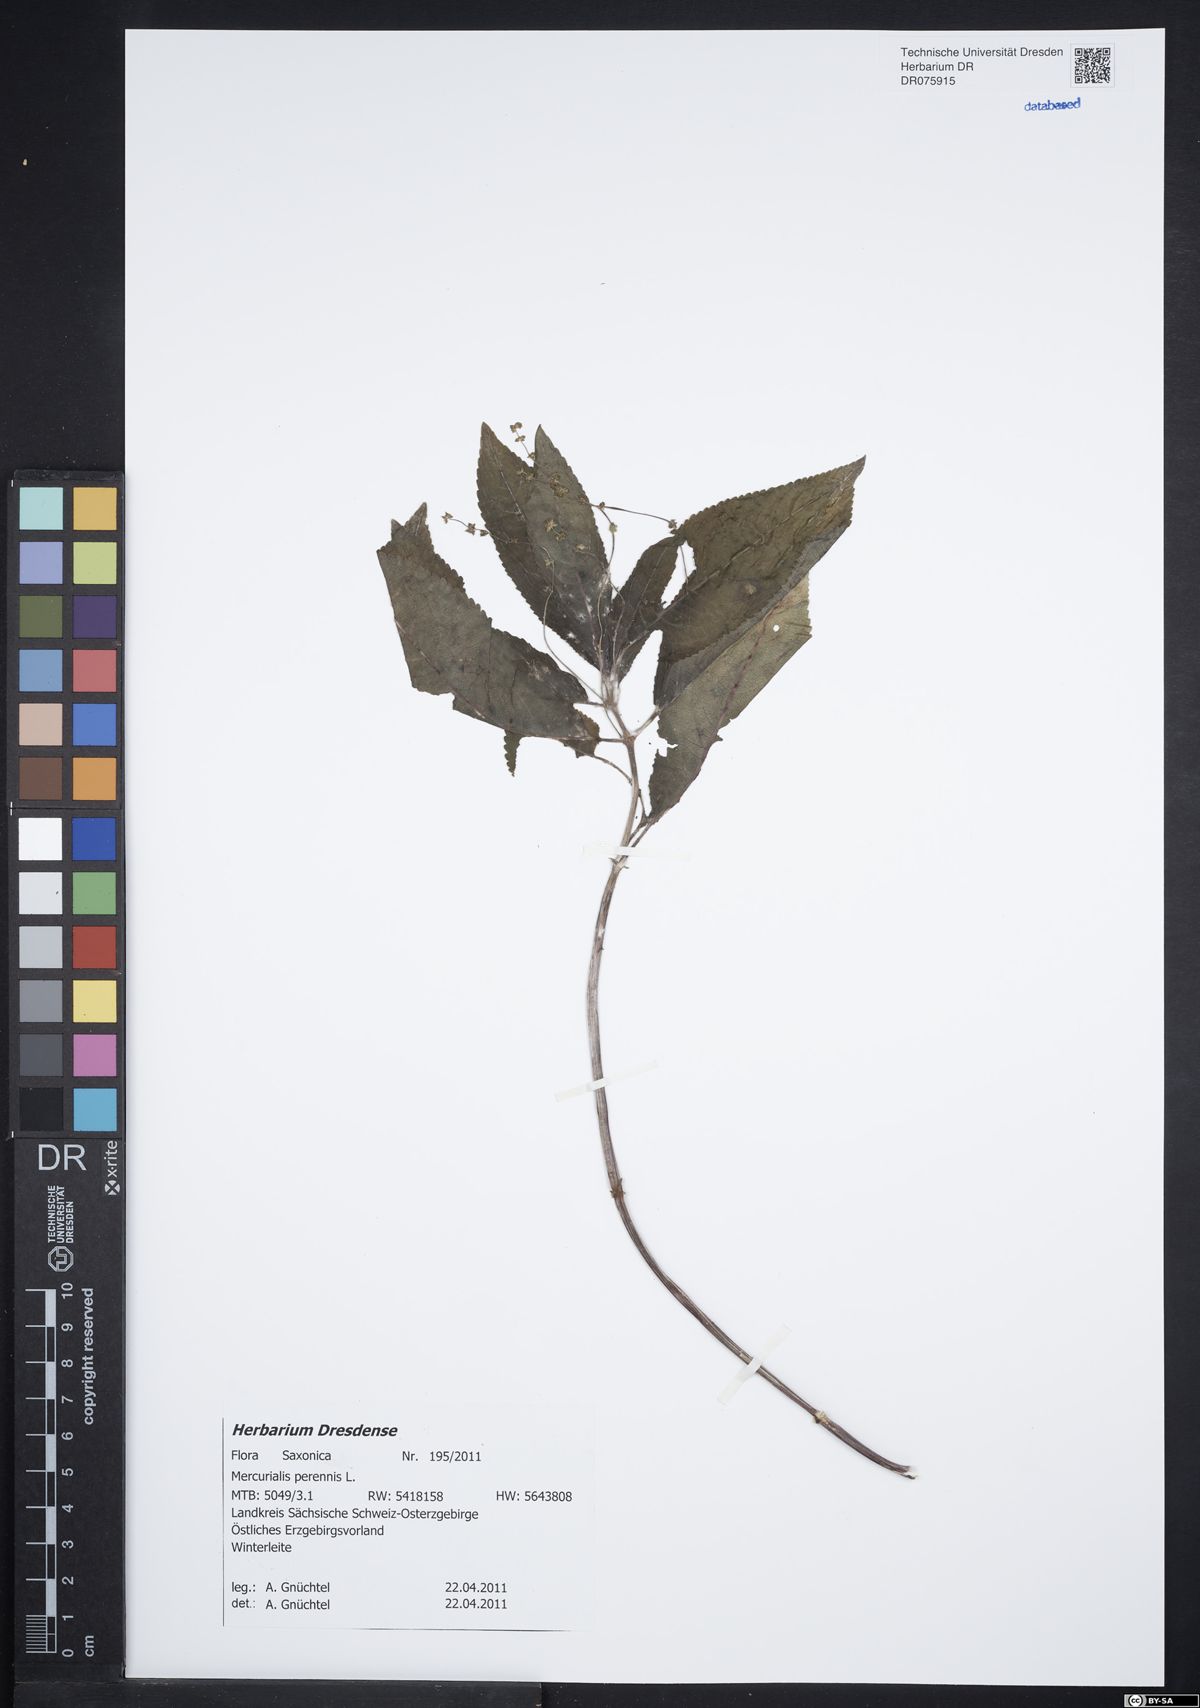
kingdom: Plantae
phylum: Tracheophyta
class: Magnoliopsida
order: Malpighiales
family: Euphorbiaceae
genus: Mercurialis
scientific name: Mercurialis perennis
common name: Dog mercury
